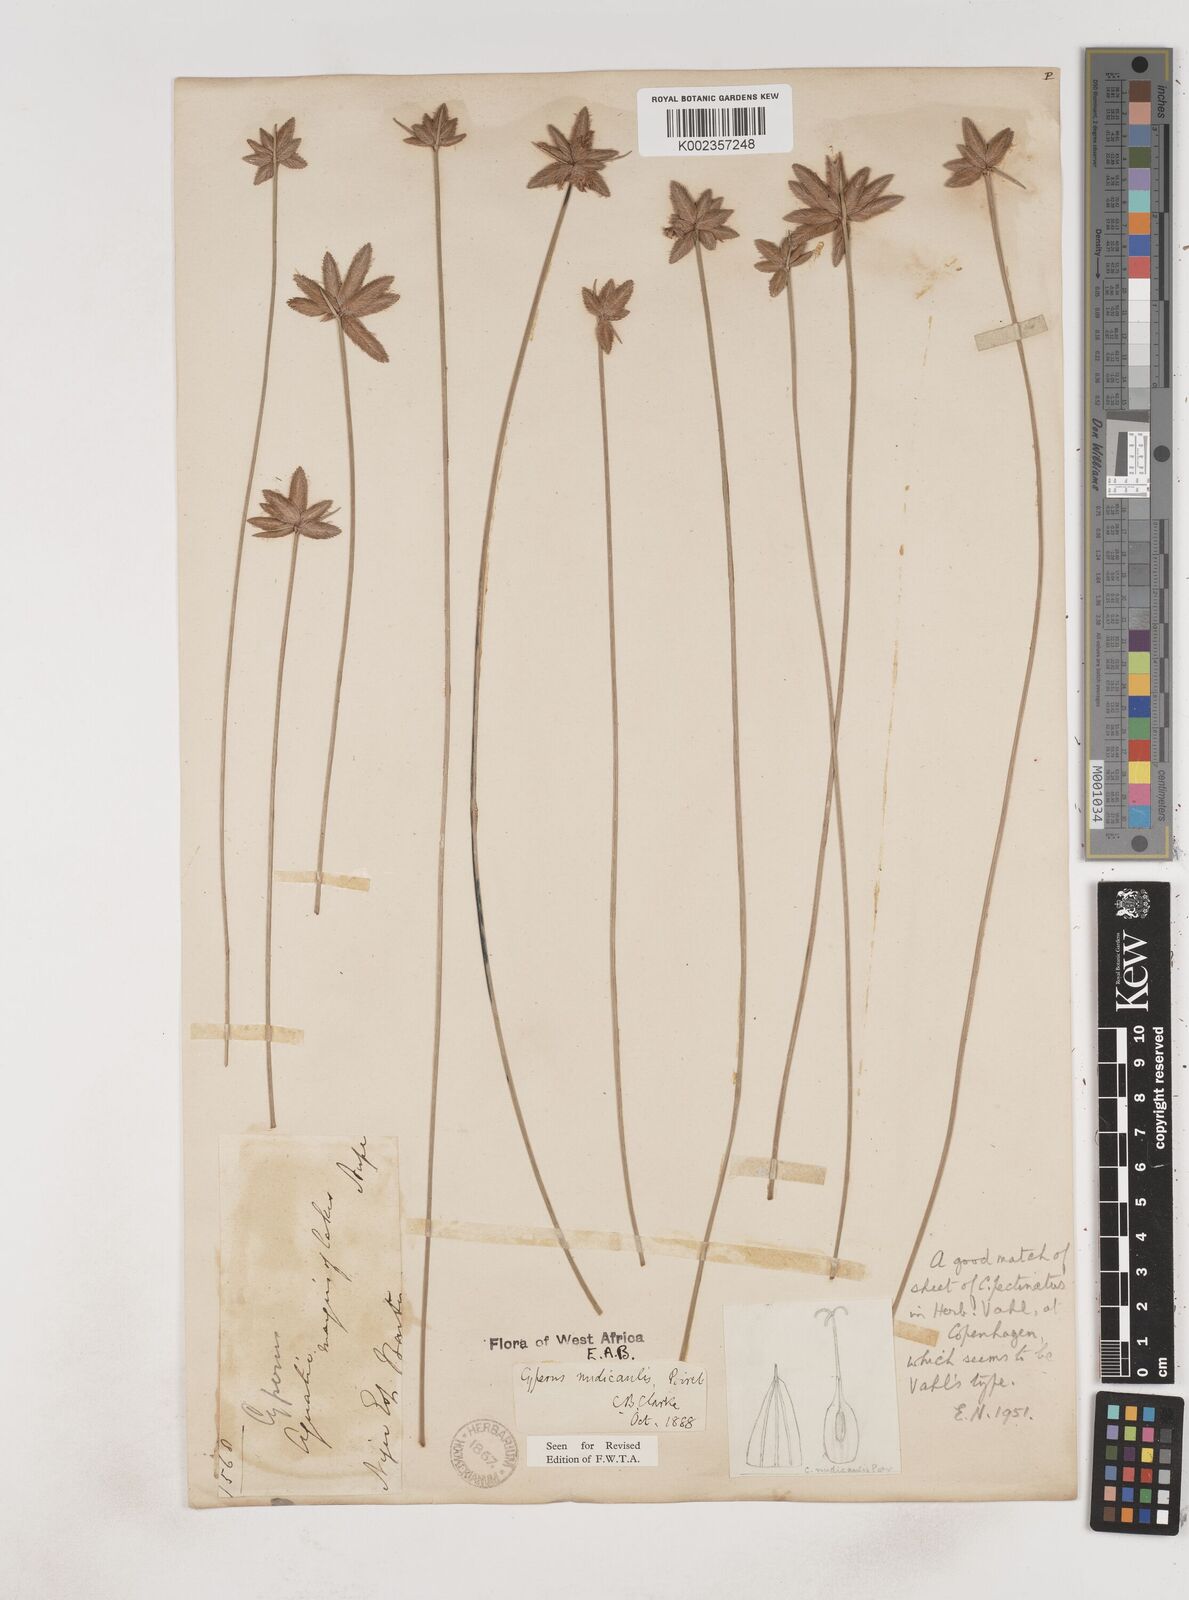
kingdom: Plantae
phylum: Tracheophyta
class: Liliopsida
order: Poales
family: Cyperaceae
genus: Cyperus
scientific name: Cyperus pectinatus
